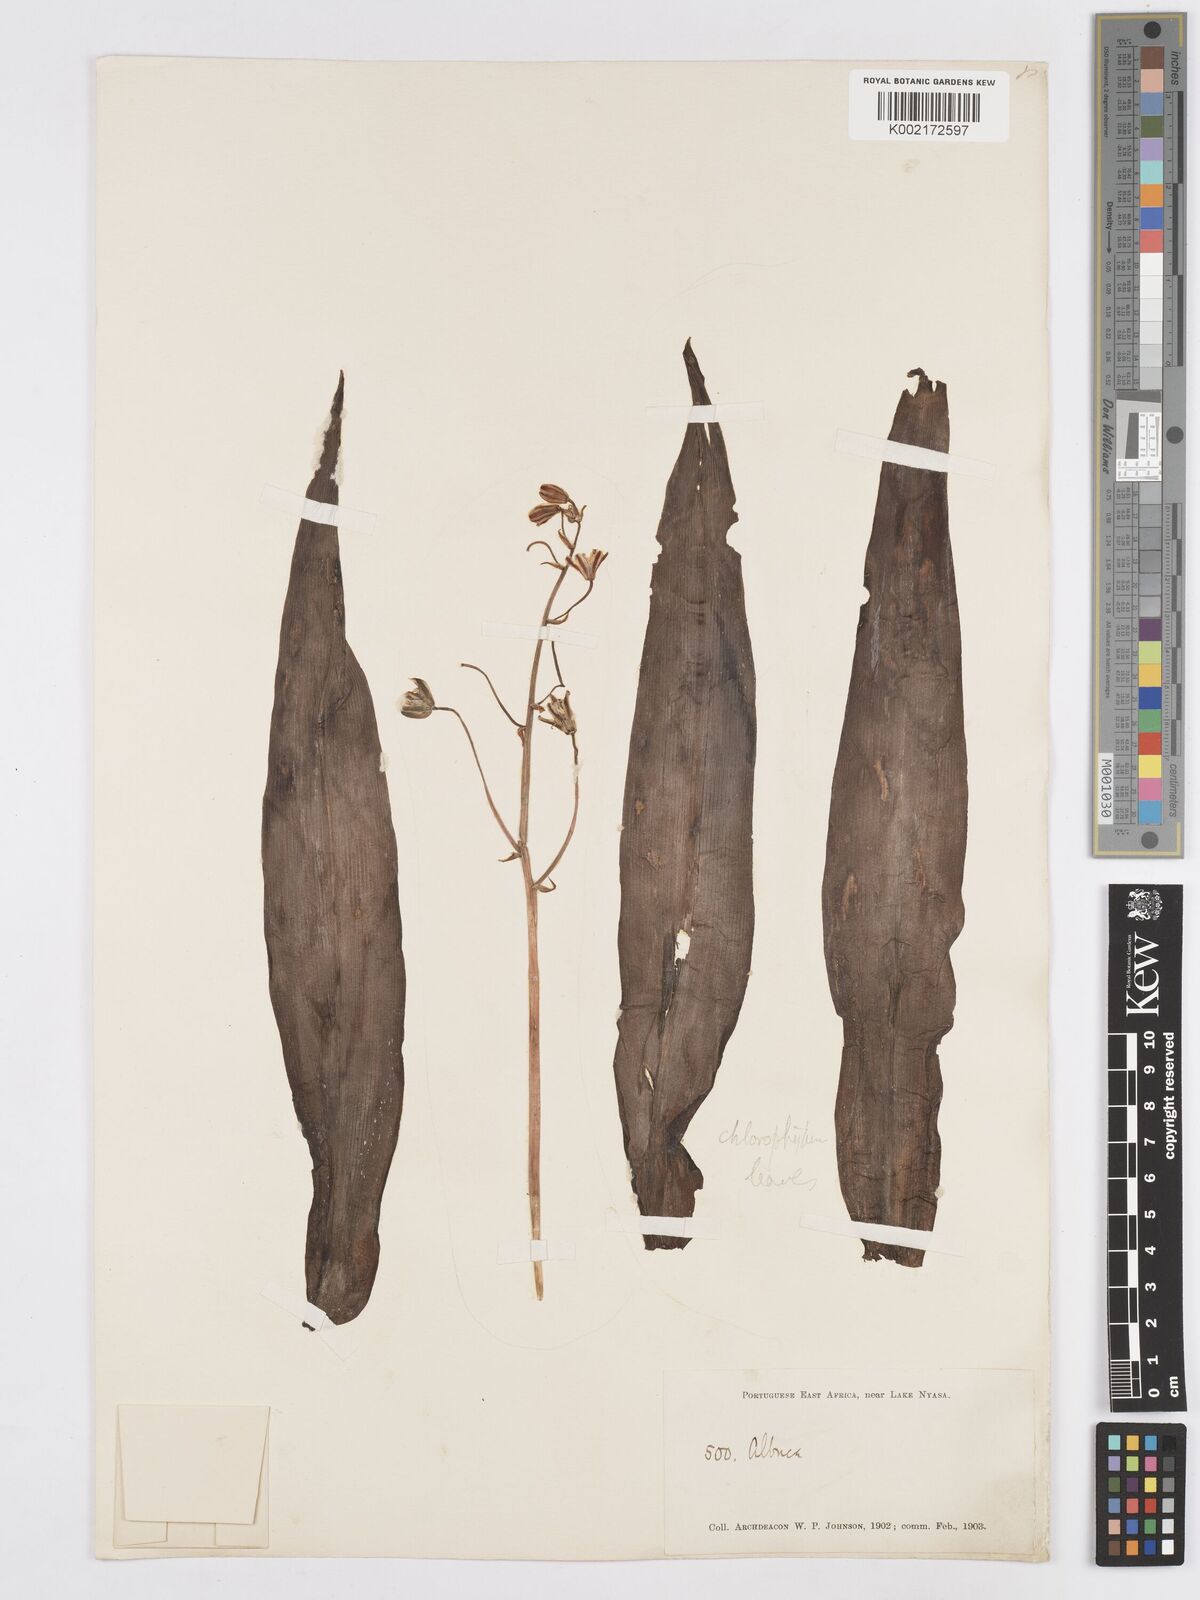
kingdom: Plantae
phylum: Tracheophyta
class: Liliopsida
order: Asparagales
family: Asparagaceae
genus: Albuca
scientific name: Albuca kirkii
